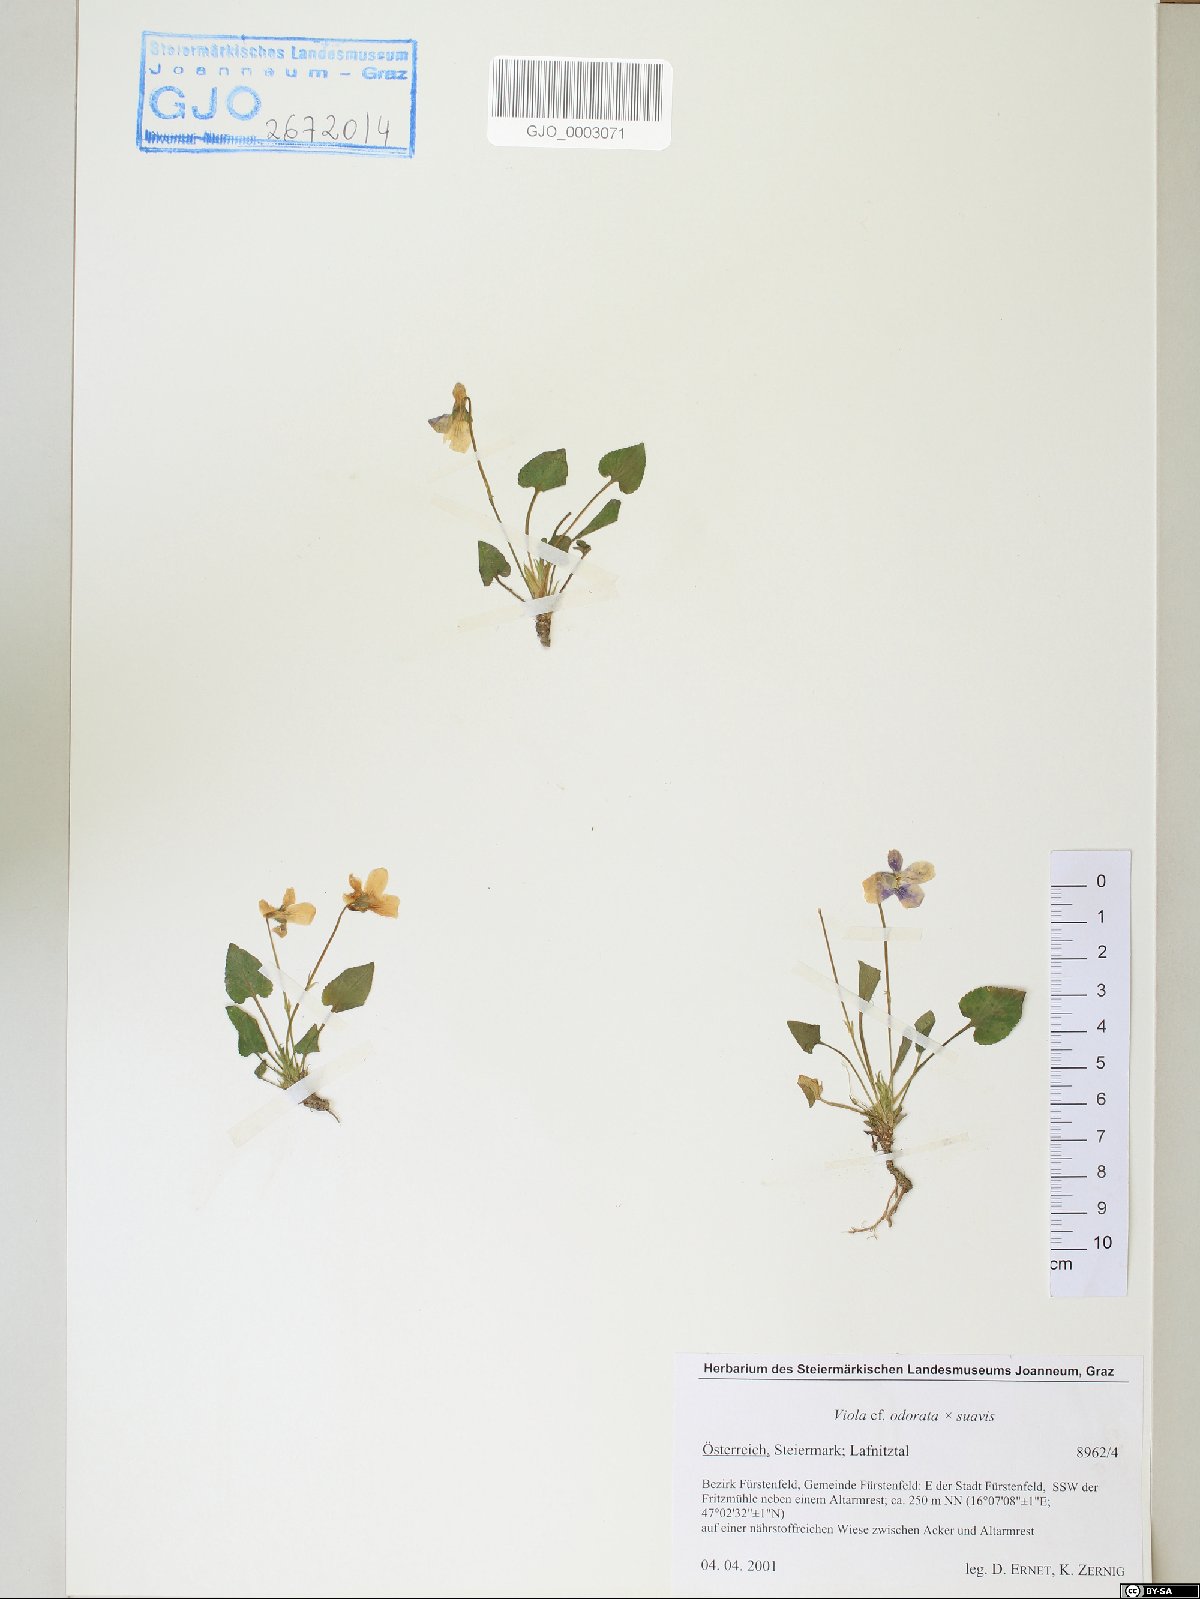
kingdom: Plantae
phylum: Tracheophyta
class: Magnoliopsida
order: Malpighiales
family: Violaceae
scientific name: Violaceae
